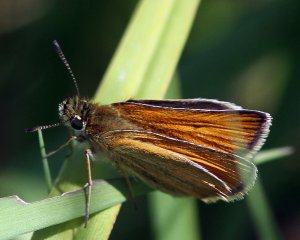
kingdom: Animalia
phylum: Arthropoda
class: Insecta
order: Lepidoptera
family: Hesperiidae
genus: Thymelicus
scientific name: Thymelicus lineola
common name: European Skipper
